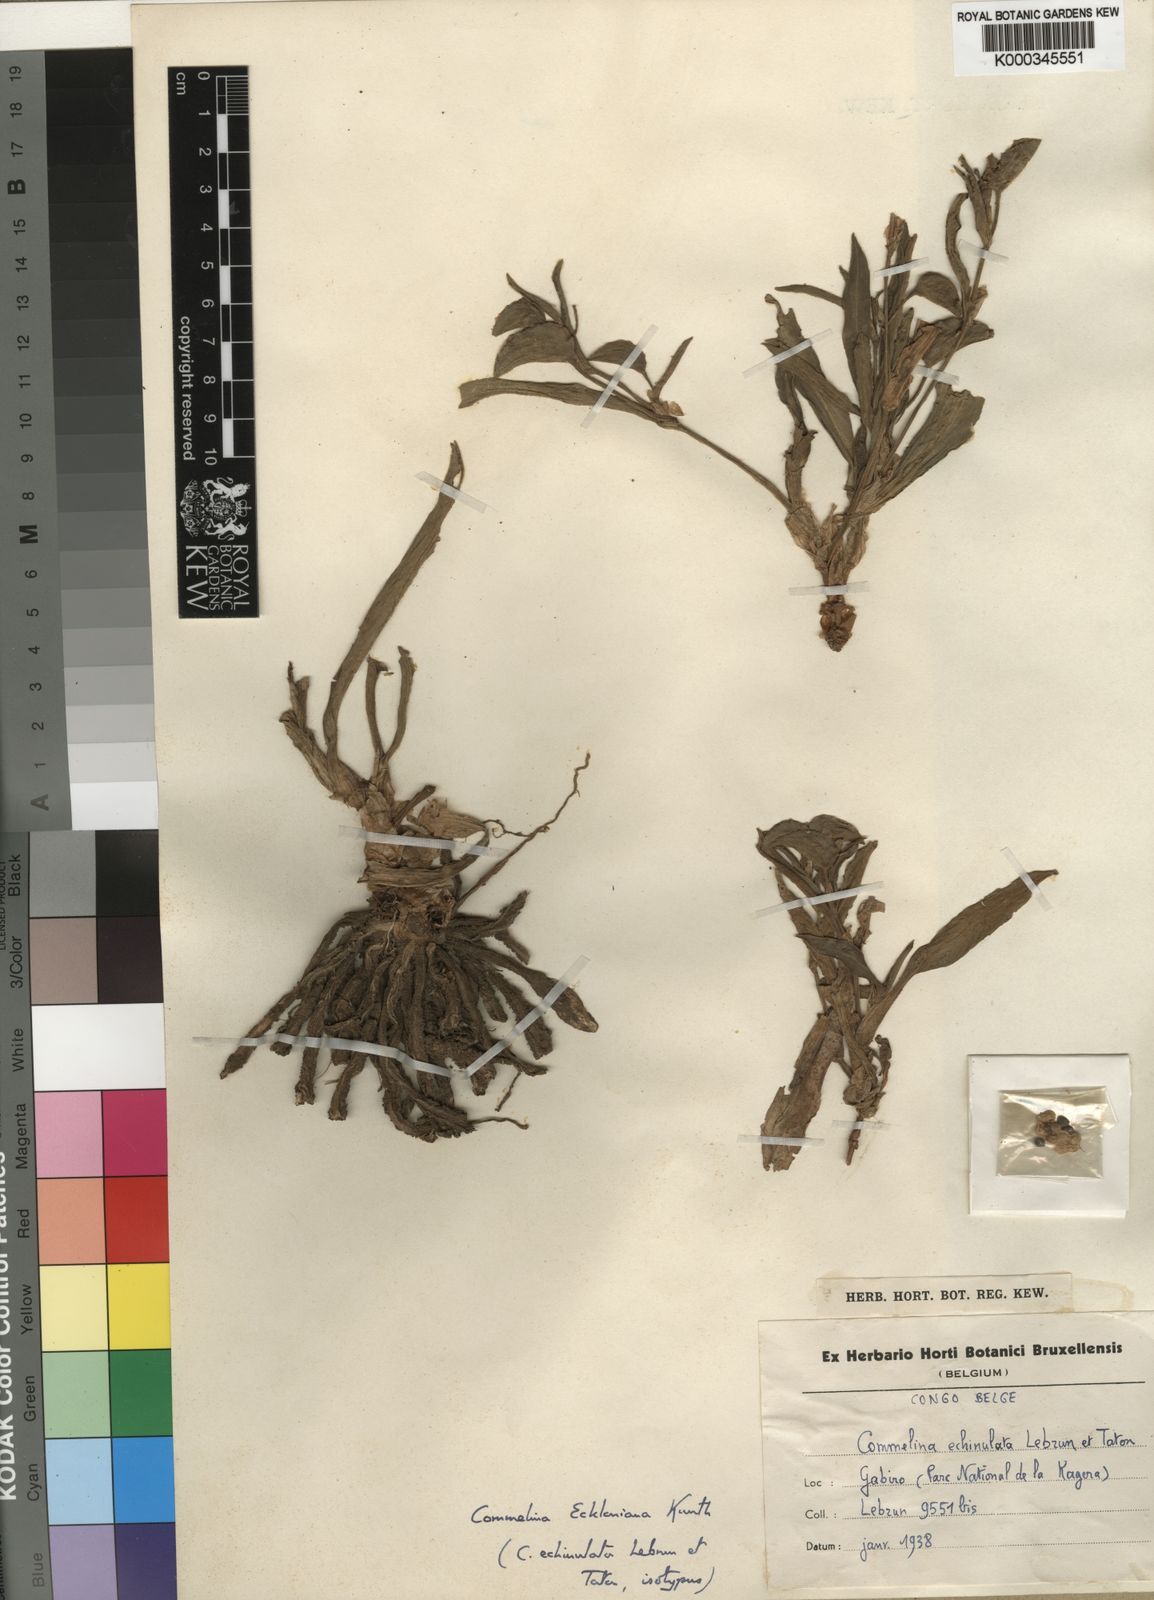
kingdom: Plantae
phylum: Tracheophyta
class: Liliopsida
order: Commelinales
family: Commelinaceae
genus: Commelina
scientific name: Commelina eckloniana
